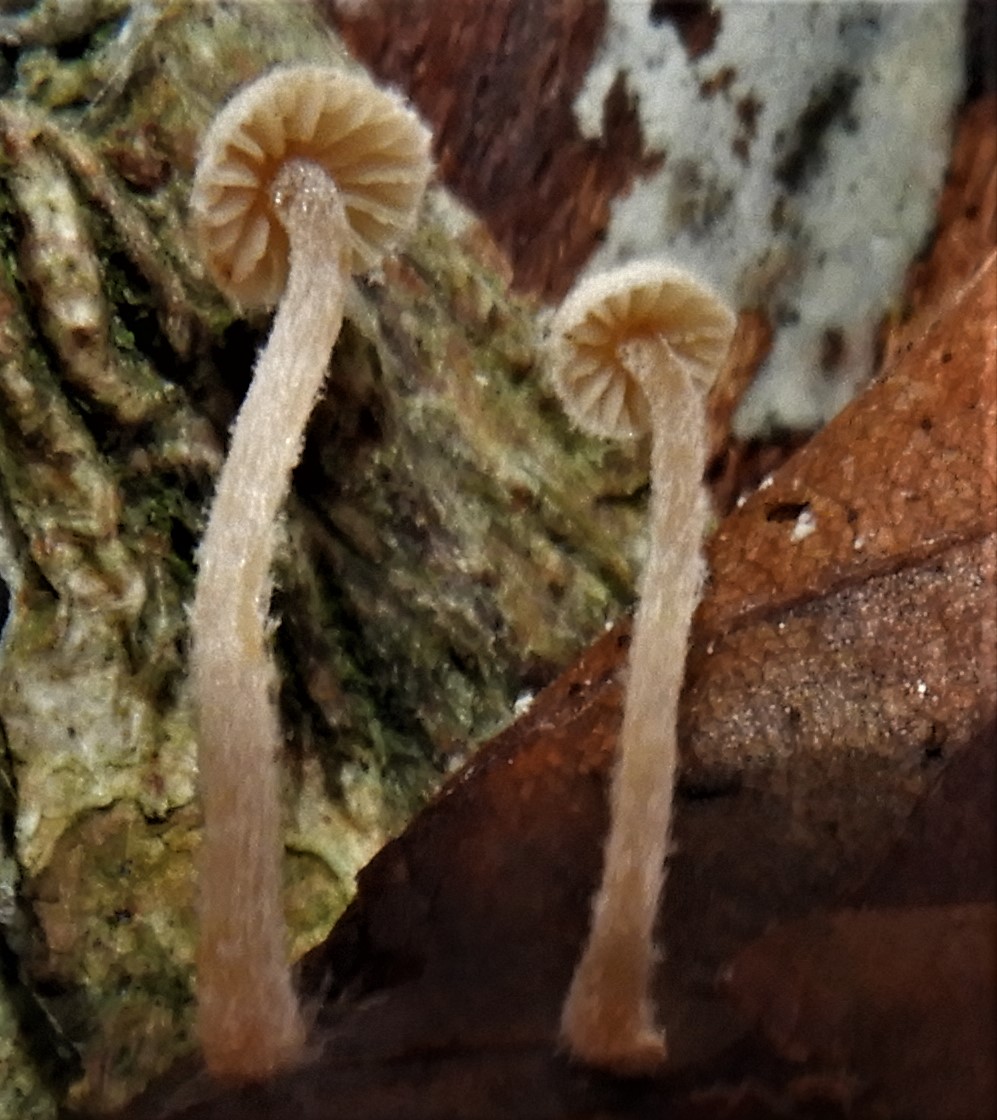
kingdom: Fungi
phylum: Basidiomycota
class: Agaricomycetes
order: Agaricales
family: Tubariaceae
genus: Flammulaster
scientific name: Flammulaster
